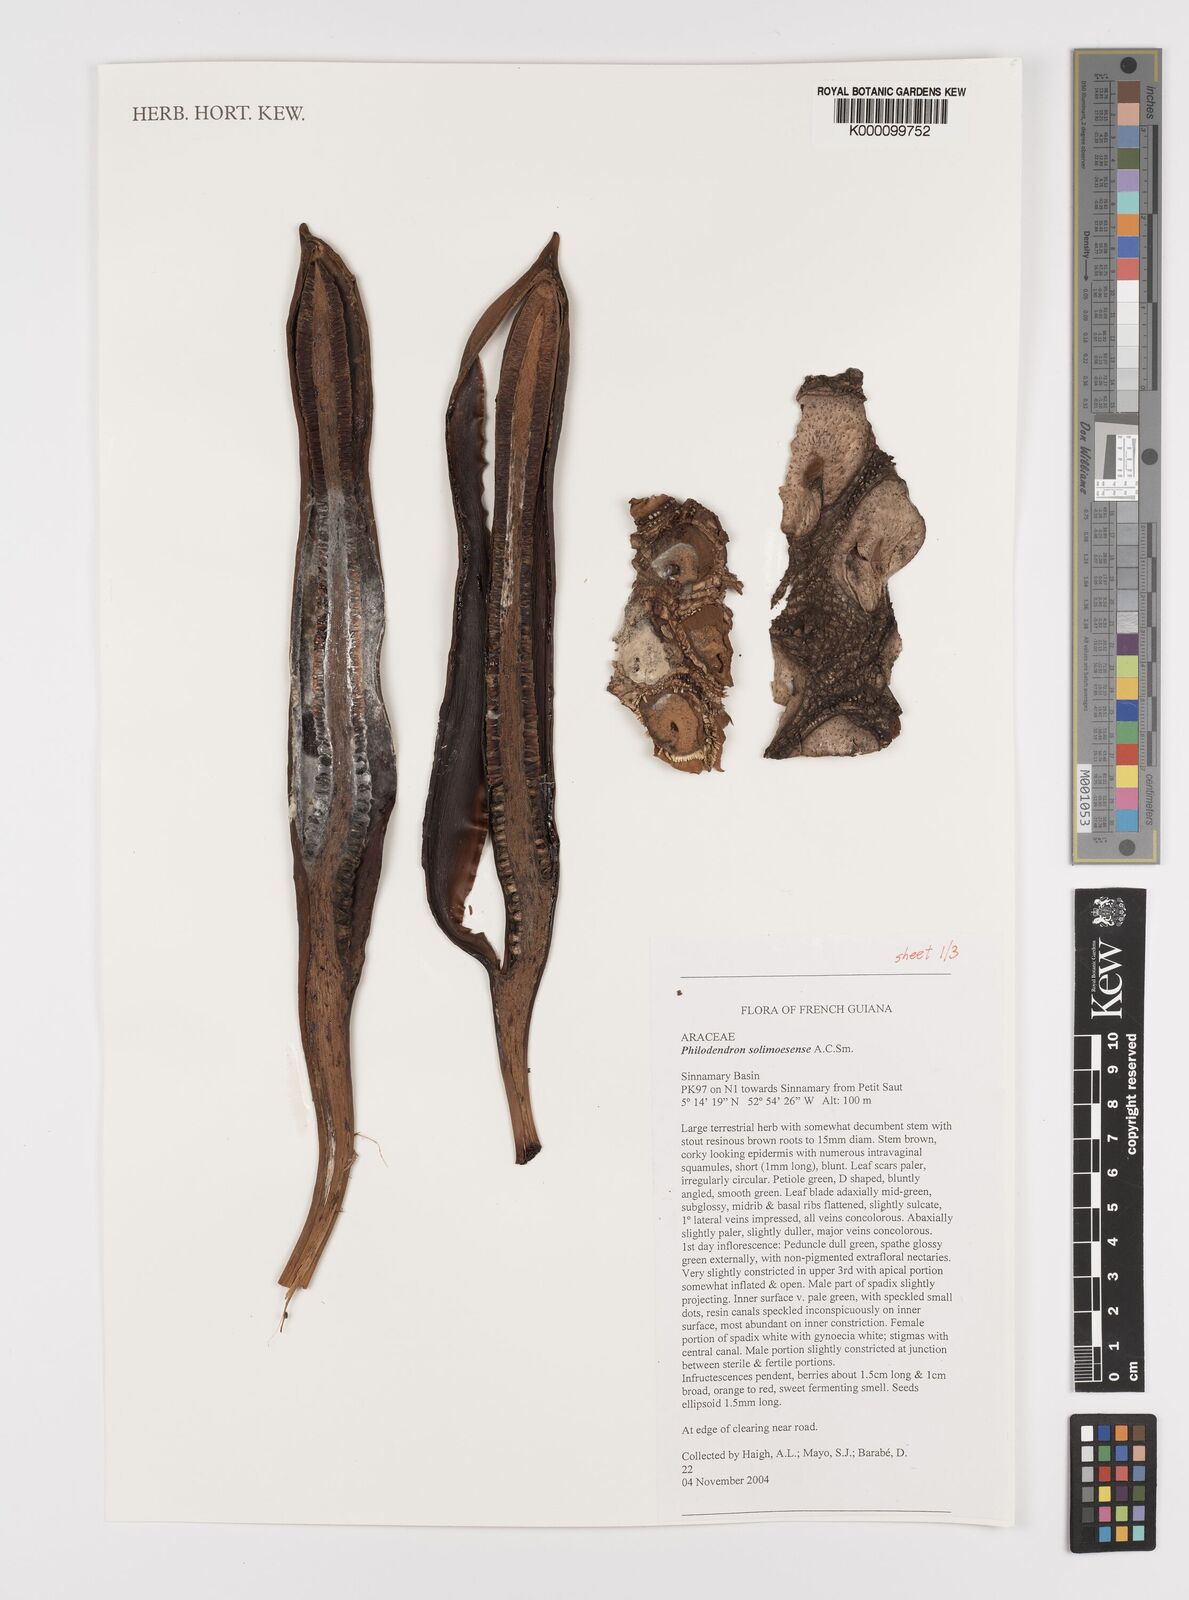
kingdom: Plantae
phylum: Tracheophyta
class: Liliopsida
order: Alismatales
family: Araceae
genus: Thaumatophyllum
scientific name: Thaumatophyllum solimoesense
